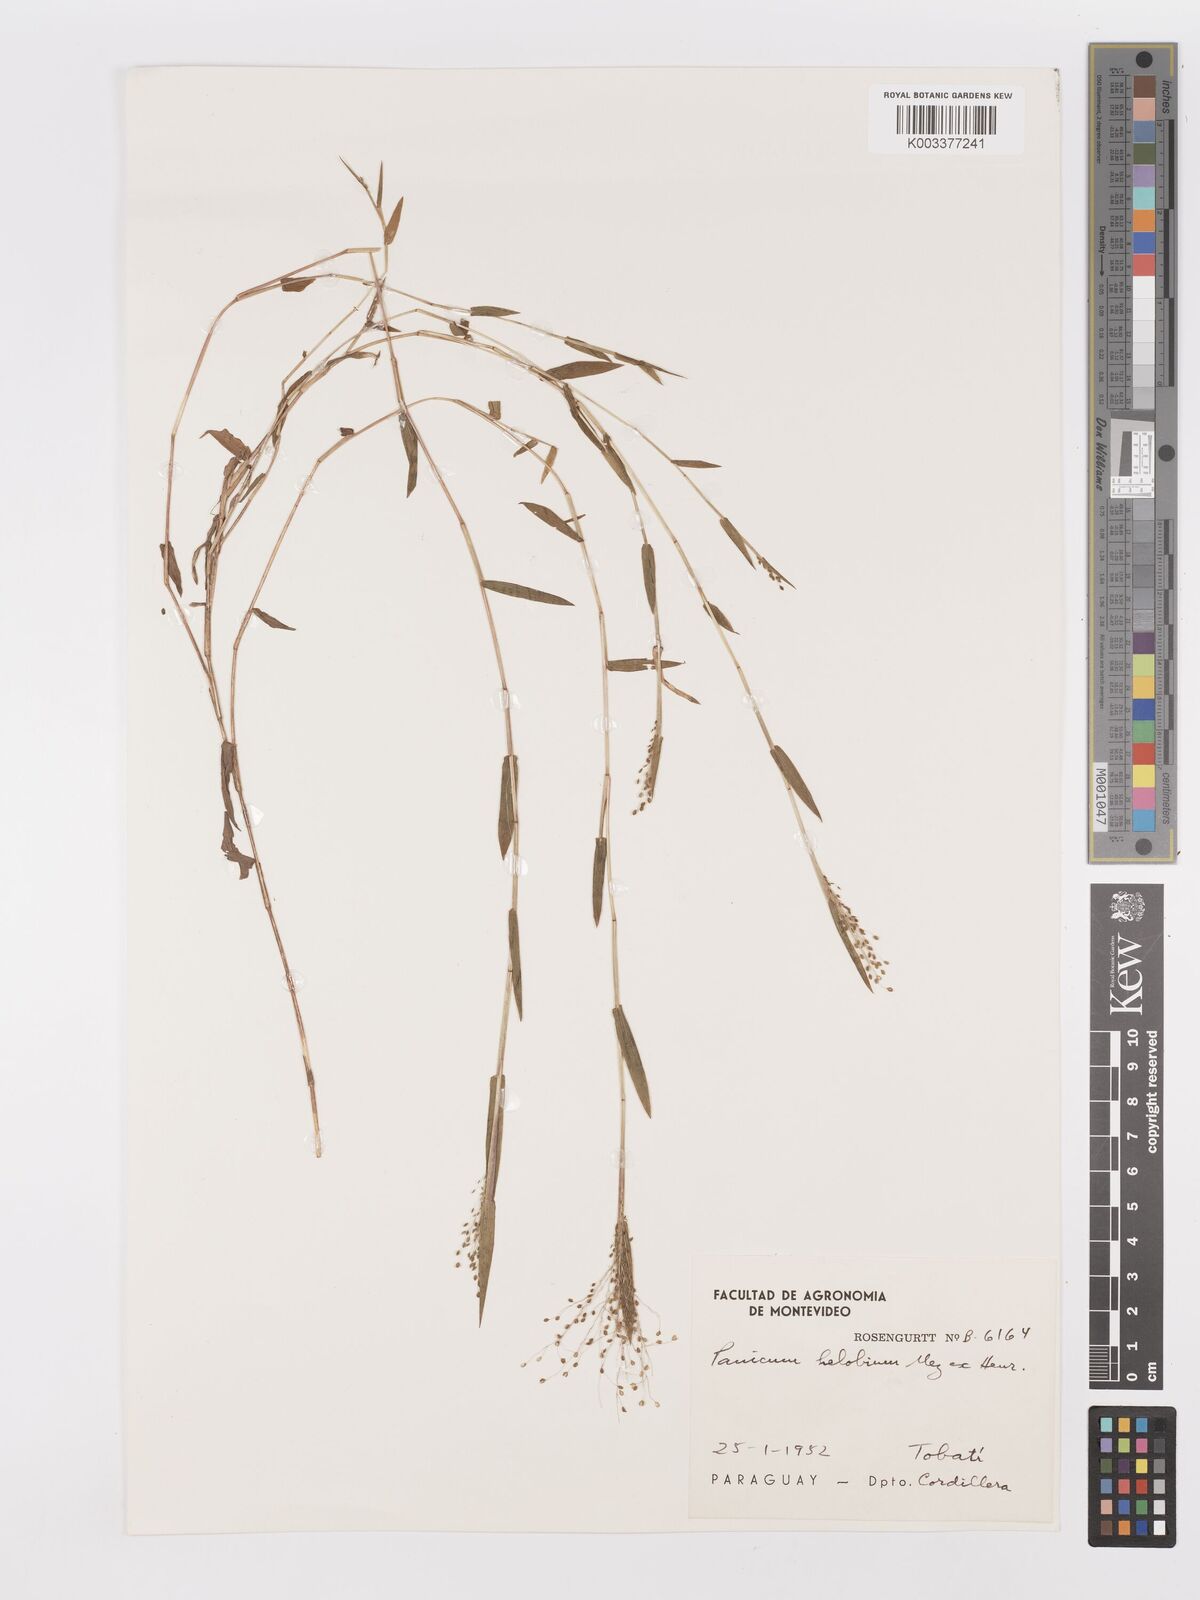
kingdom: Plantae
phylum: Tracheophyta
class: Liliopsida
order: Poales
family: Poaceae
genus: Trichanthecium
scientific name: Trichanthecium schwackeanum
